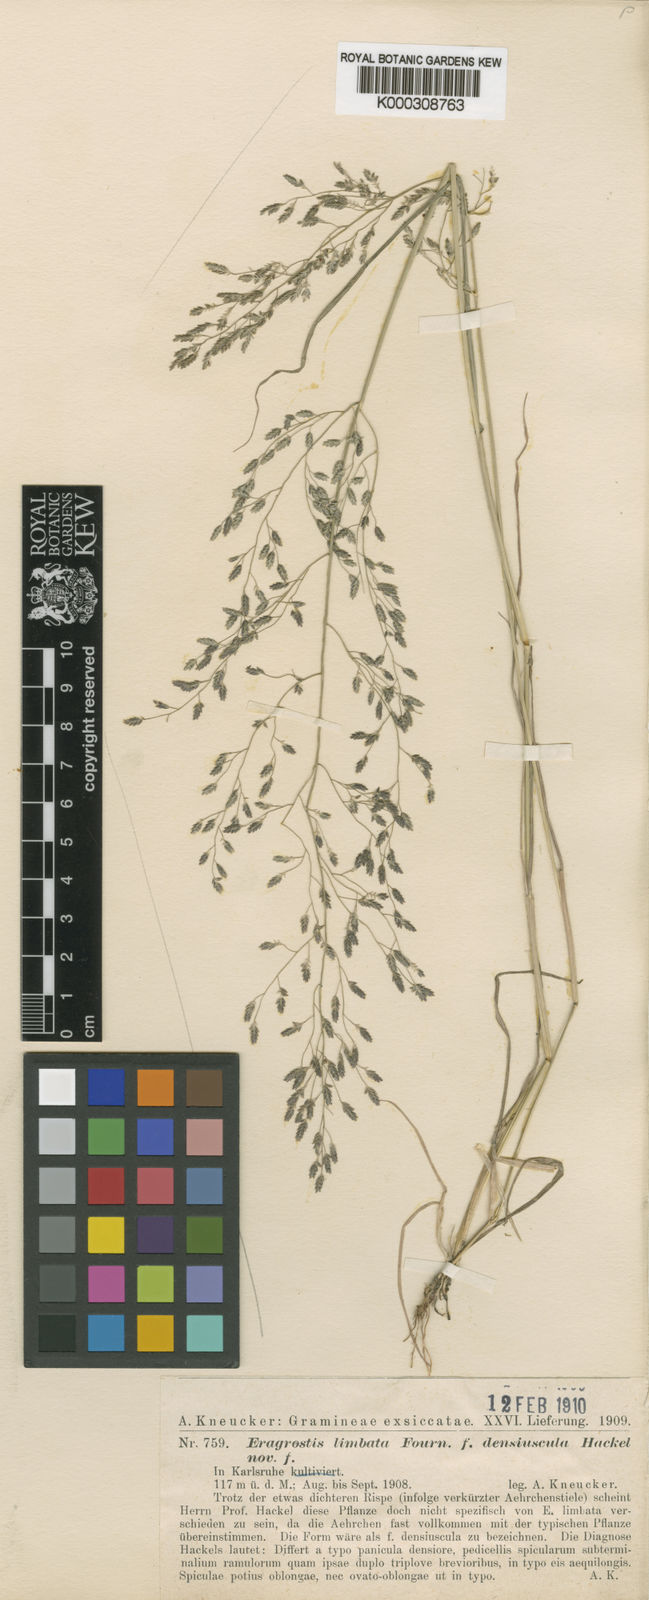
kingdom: Plantae
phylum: Tracheophyta
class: Liliopsida
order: Poales
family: Poaceae
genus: Eragrostis
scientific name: Eragrostis mexicana
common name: Mexican love grass
